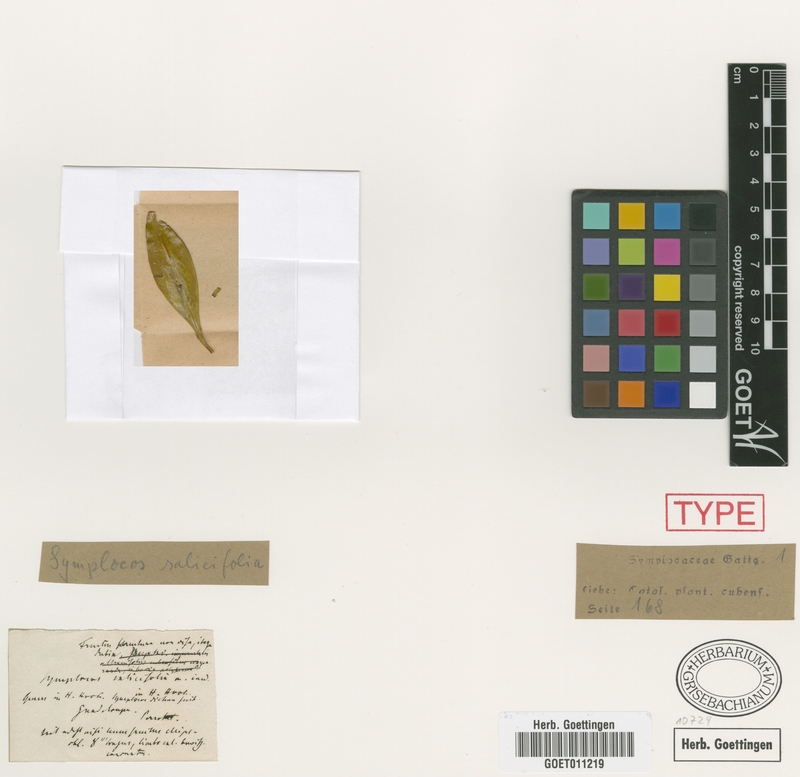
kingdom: Plantae
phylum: Tracheophyta
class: Magnoliopsida
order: Ericales
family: Symplocaceae
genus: Symplocos
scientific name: Symplocos salicifolia
